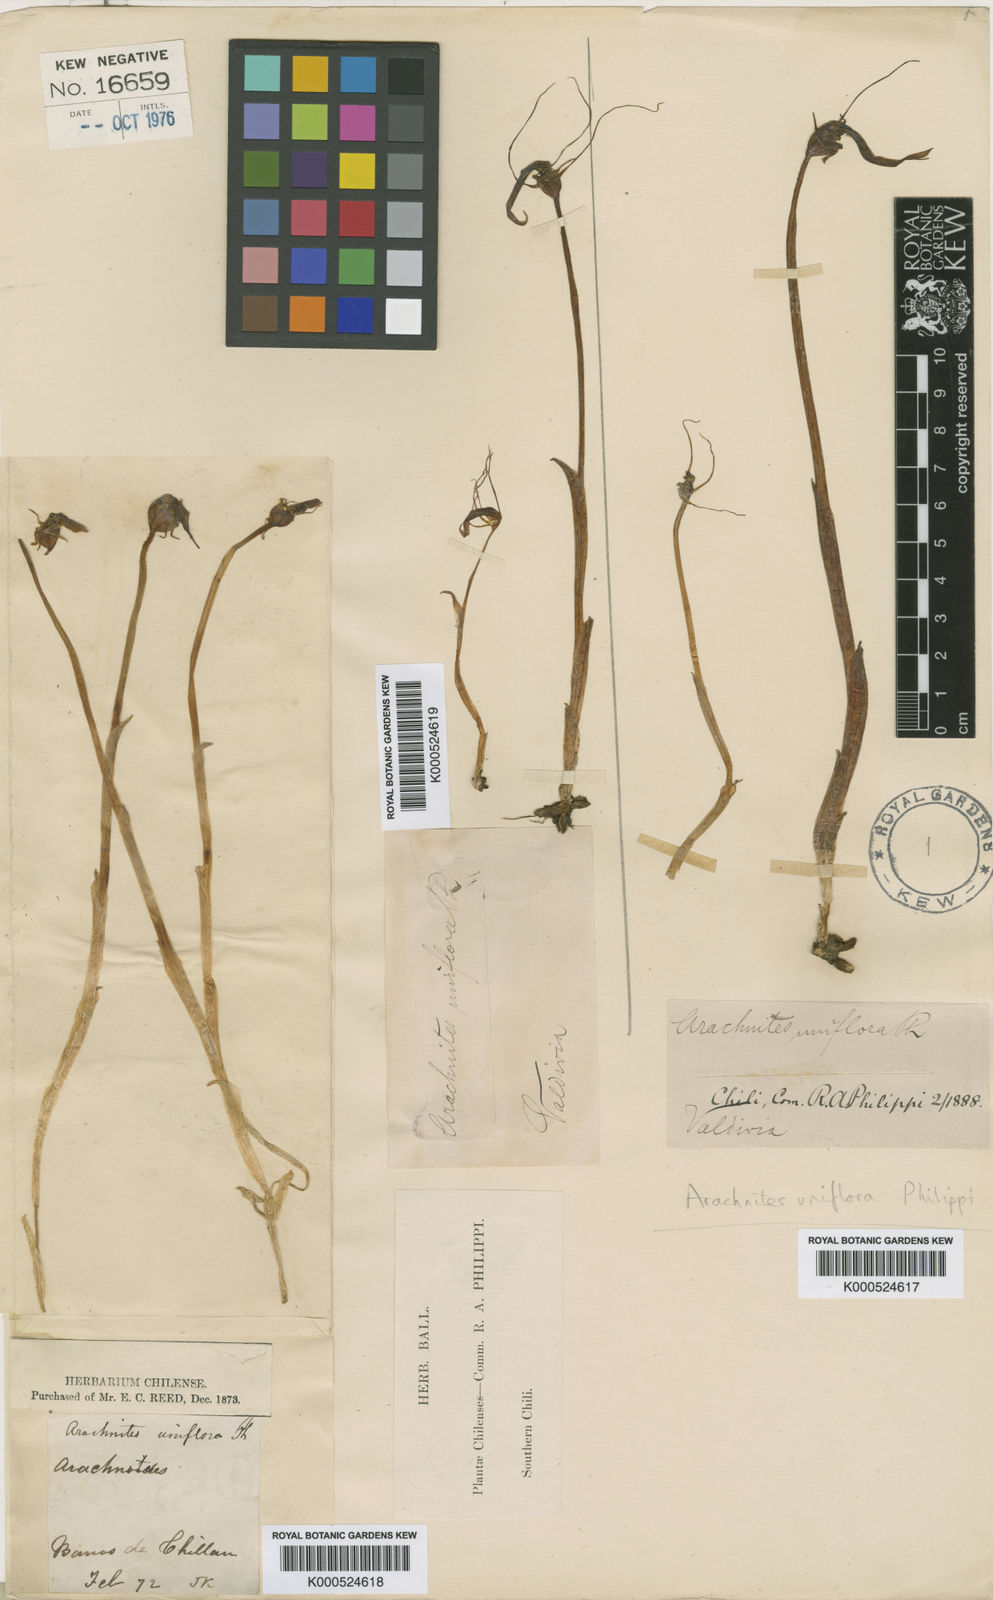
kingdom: Plantae
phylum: Tracheophyta
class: Liliopsida
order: Liliales
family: Corsiaceae
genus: Arachnitis
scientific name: Arachnitis uniflora
